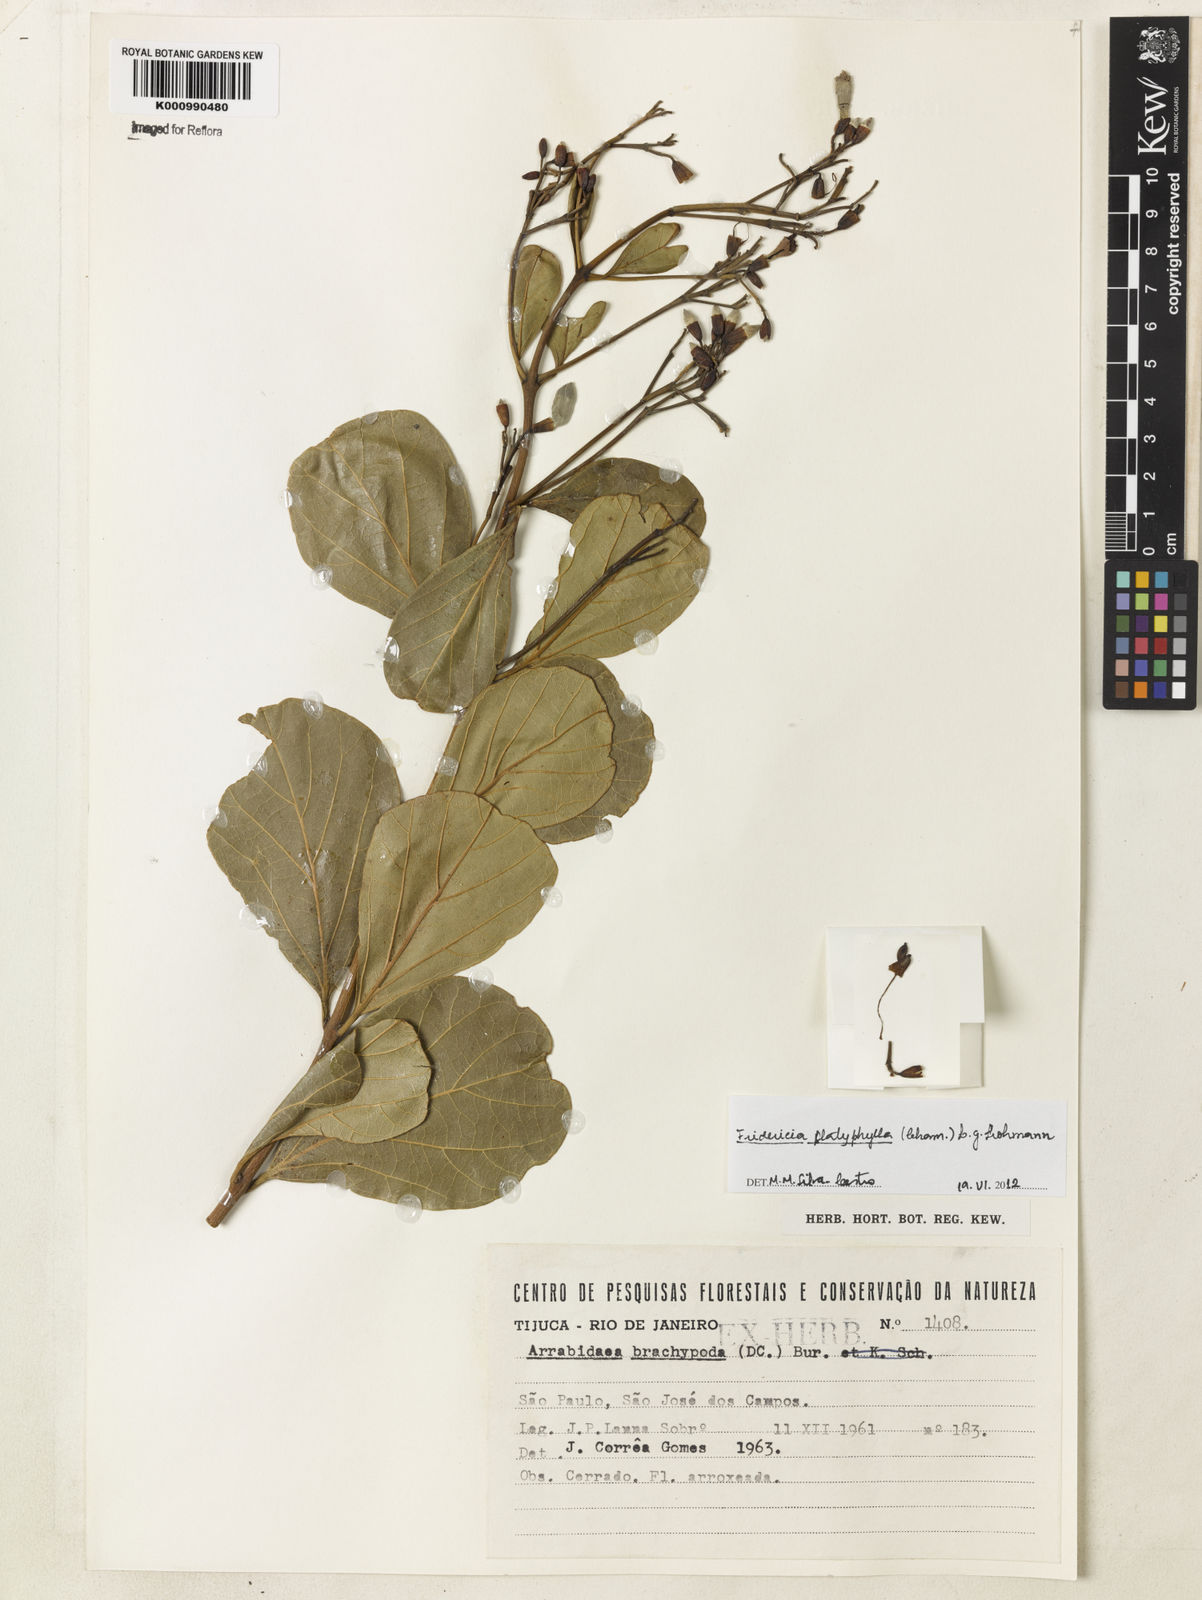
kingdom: Plantae
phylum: Tracheophyta
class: Magnoliopsida
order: Lamiales
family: Bignoniaceae
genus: Fridericia
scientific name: Fridericia platyphylla
